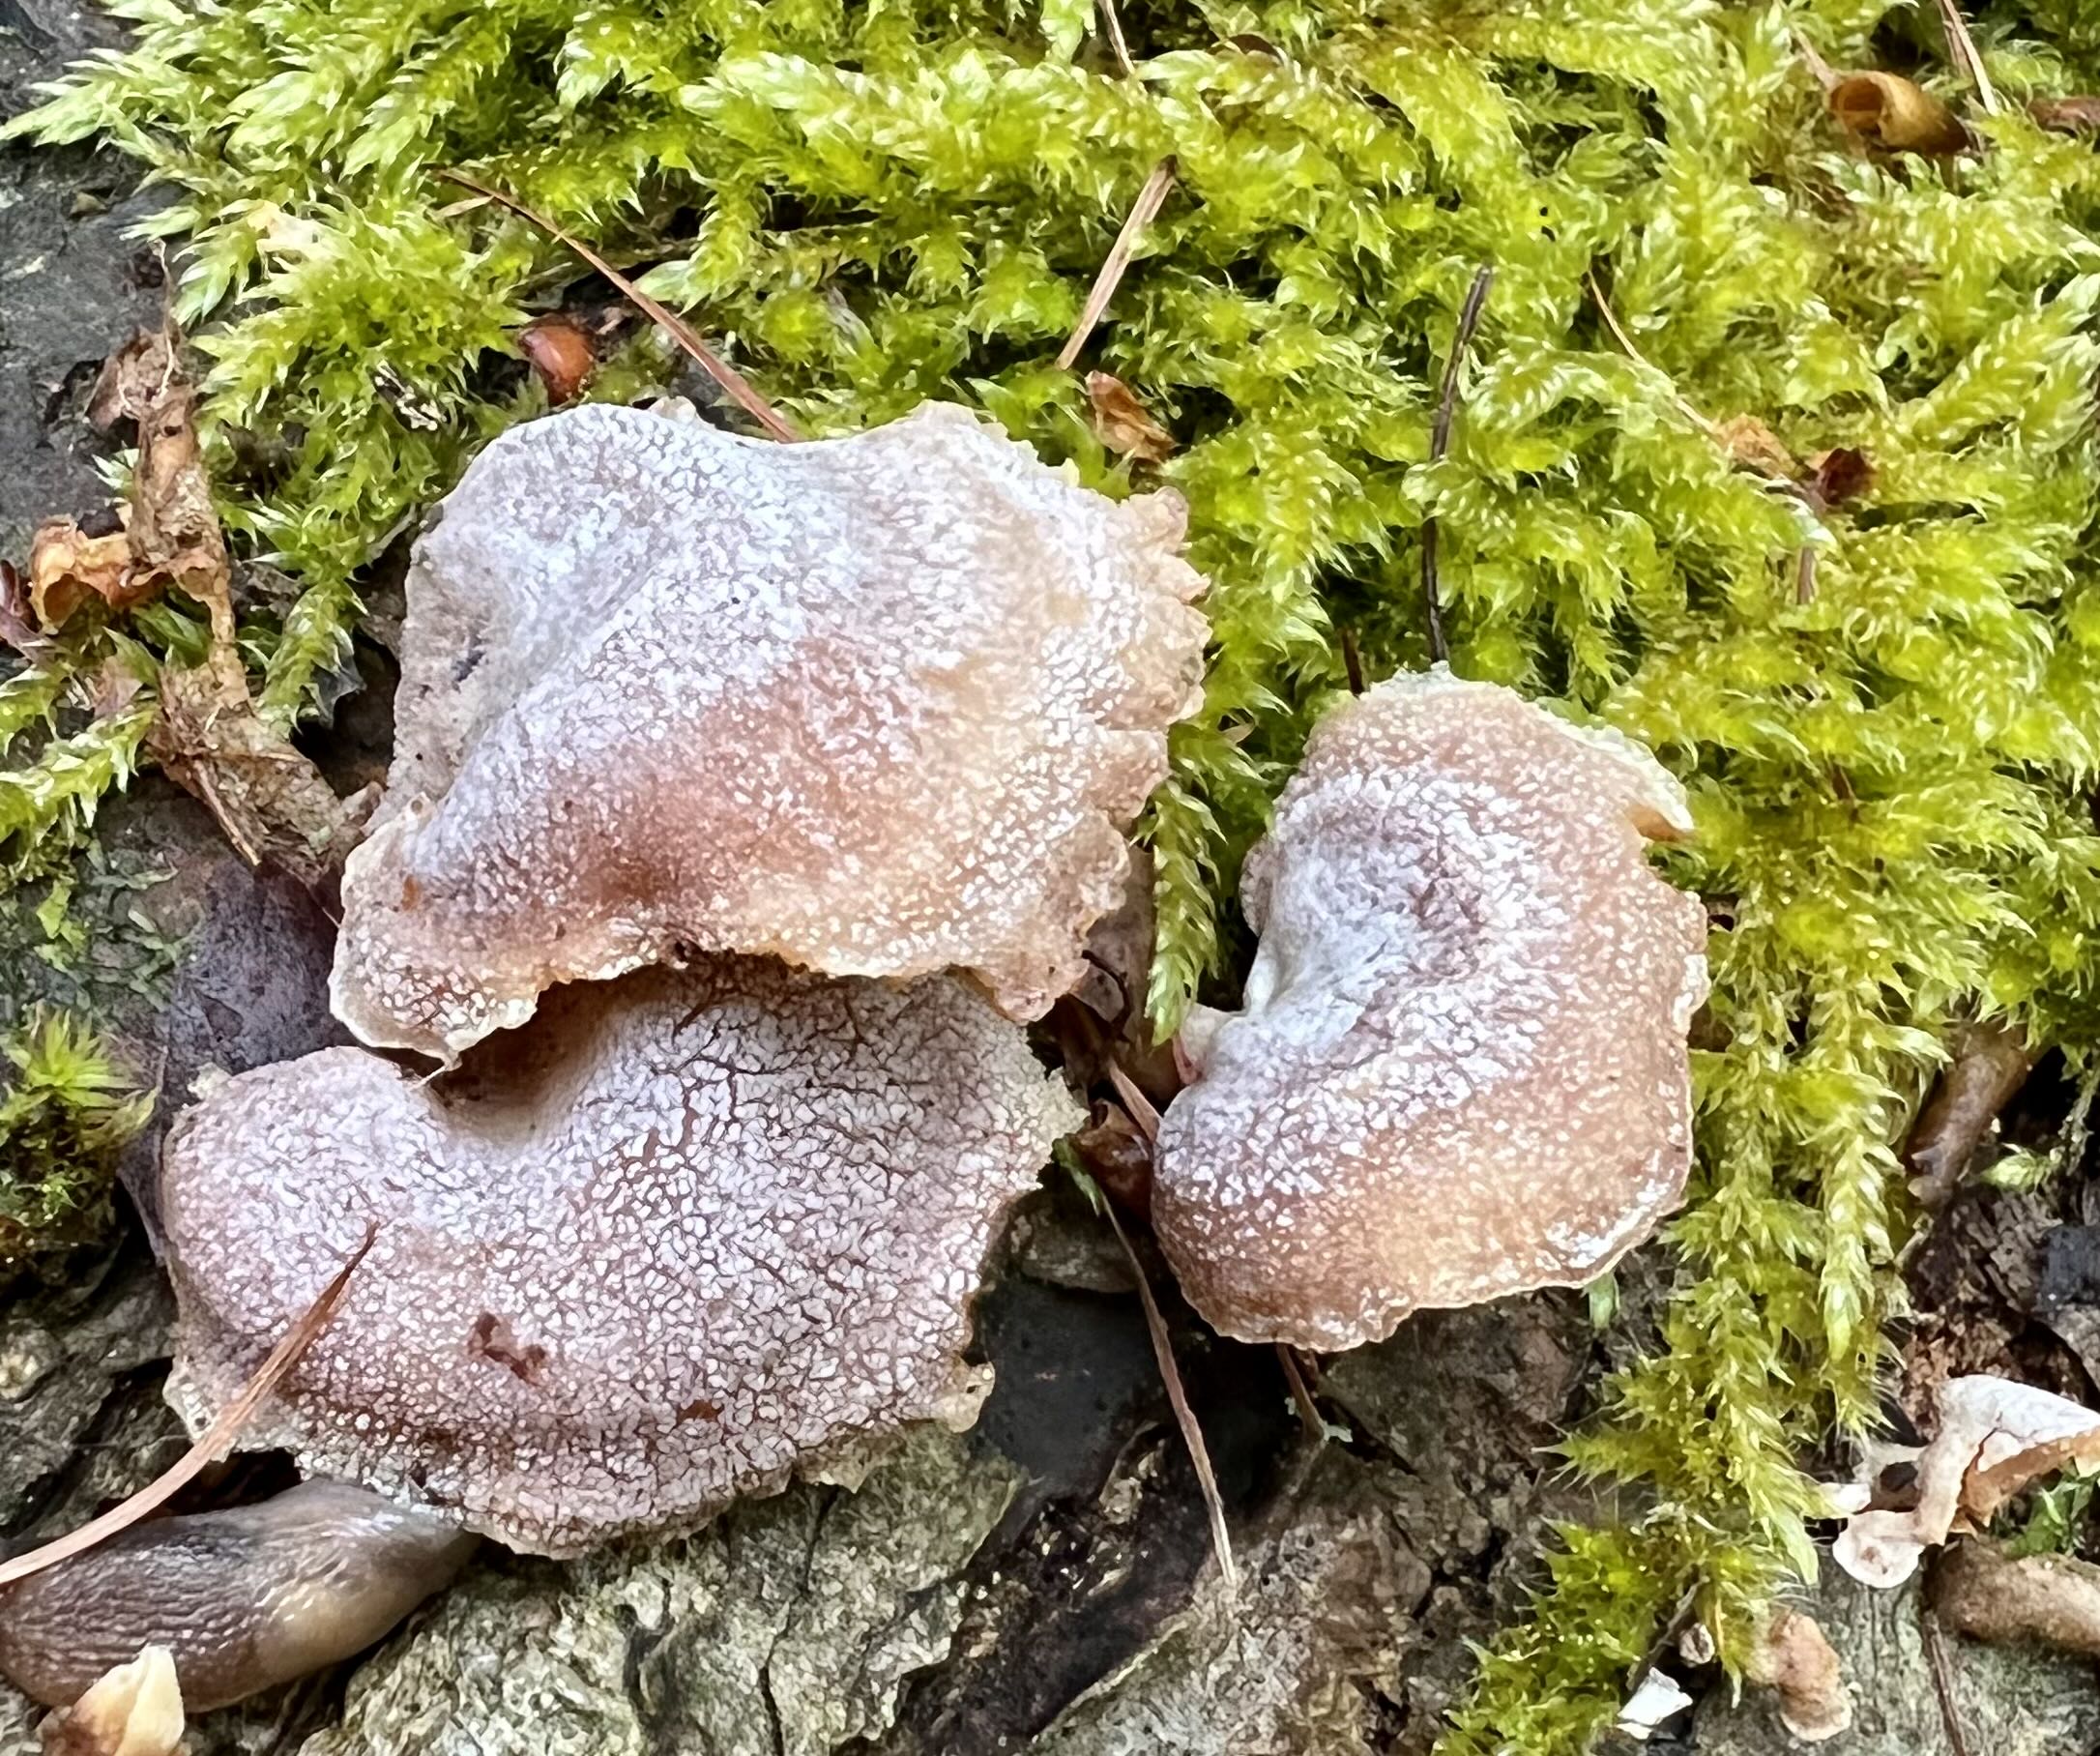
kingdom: Fungi
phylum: Basidiomycota
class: Agaricomycetes
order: Agaricales
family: Mycenaceae
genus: Panellus
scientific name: Panellus stipticus
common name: kliddet epaulethat
